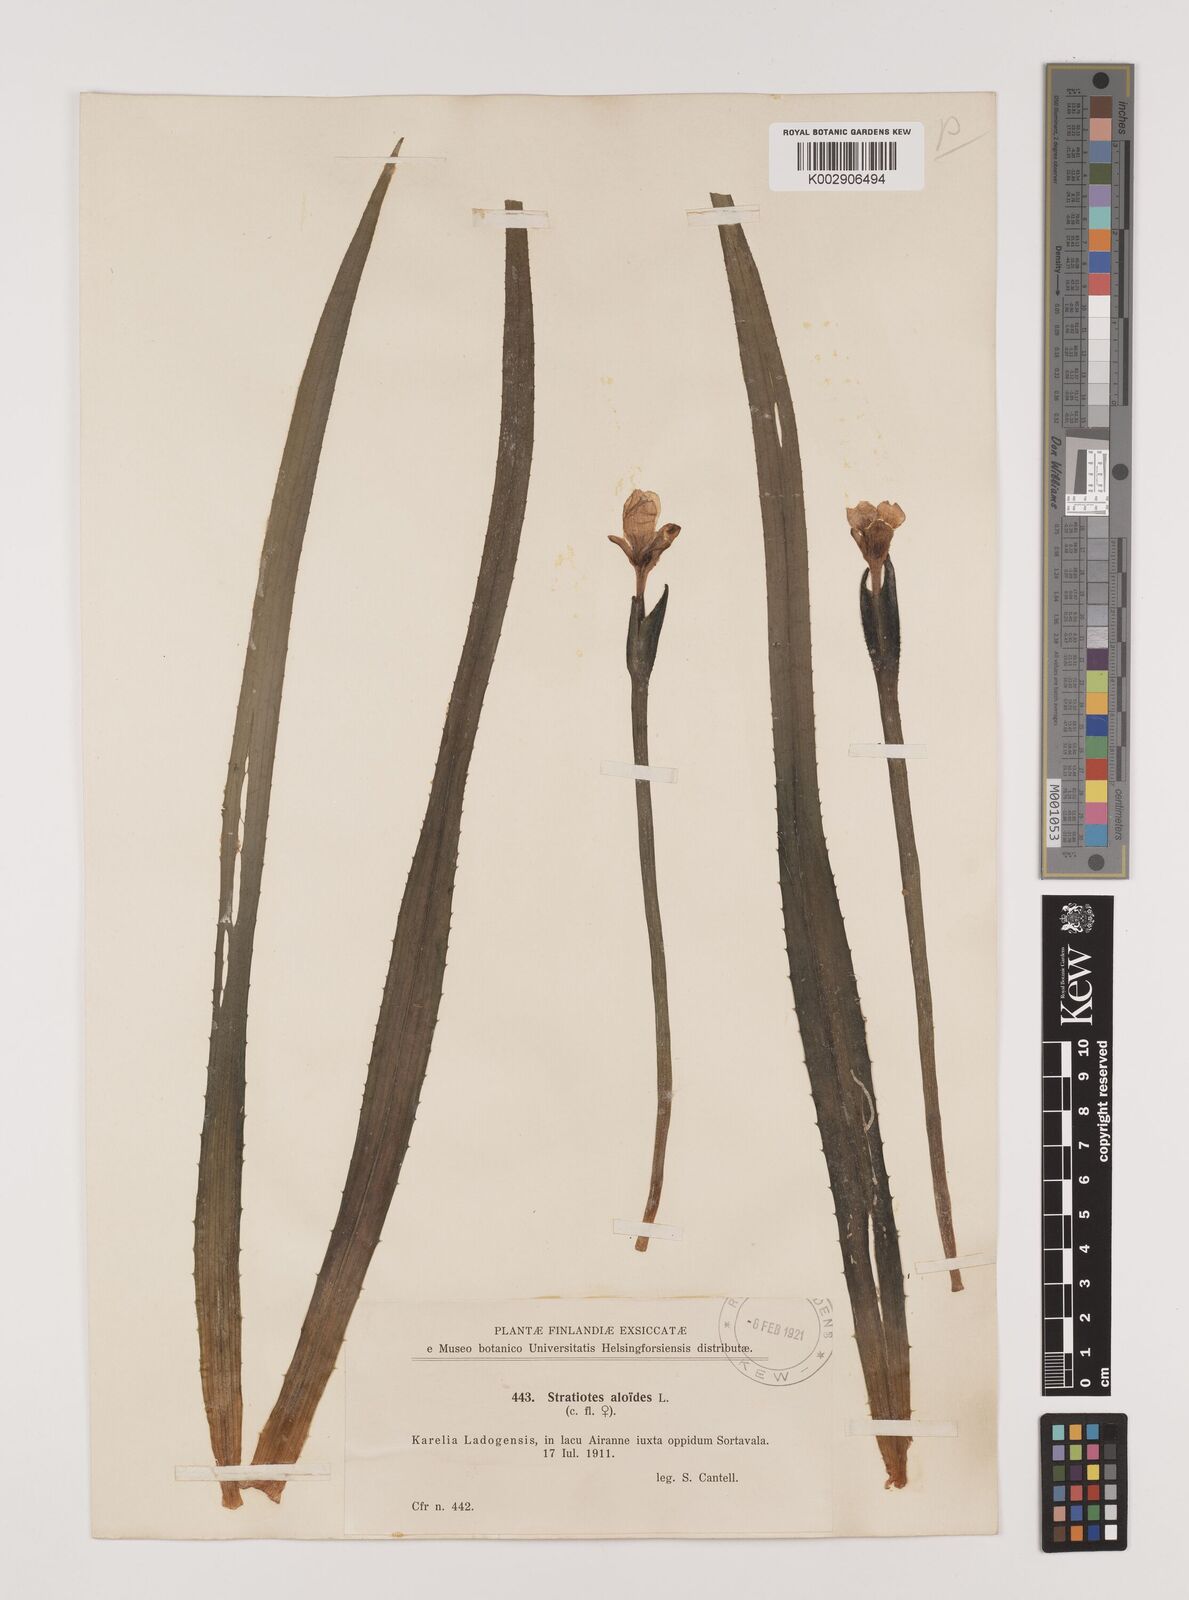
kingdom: Plantae
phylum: Tracheophyta
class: Liliopsida
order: Alismatales
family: Hydrocharitaceae
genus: Stratiotes
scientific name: Stratiotes aloides
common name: Water-soldier
